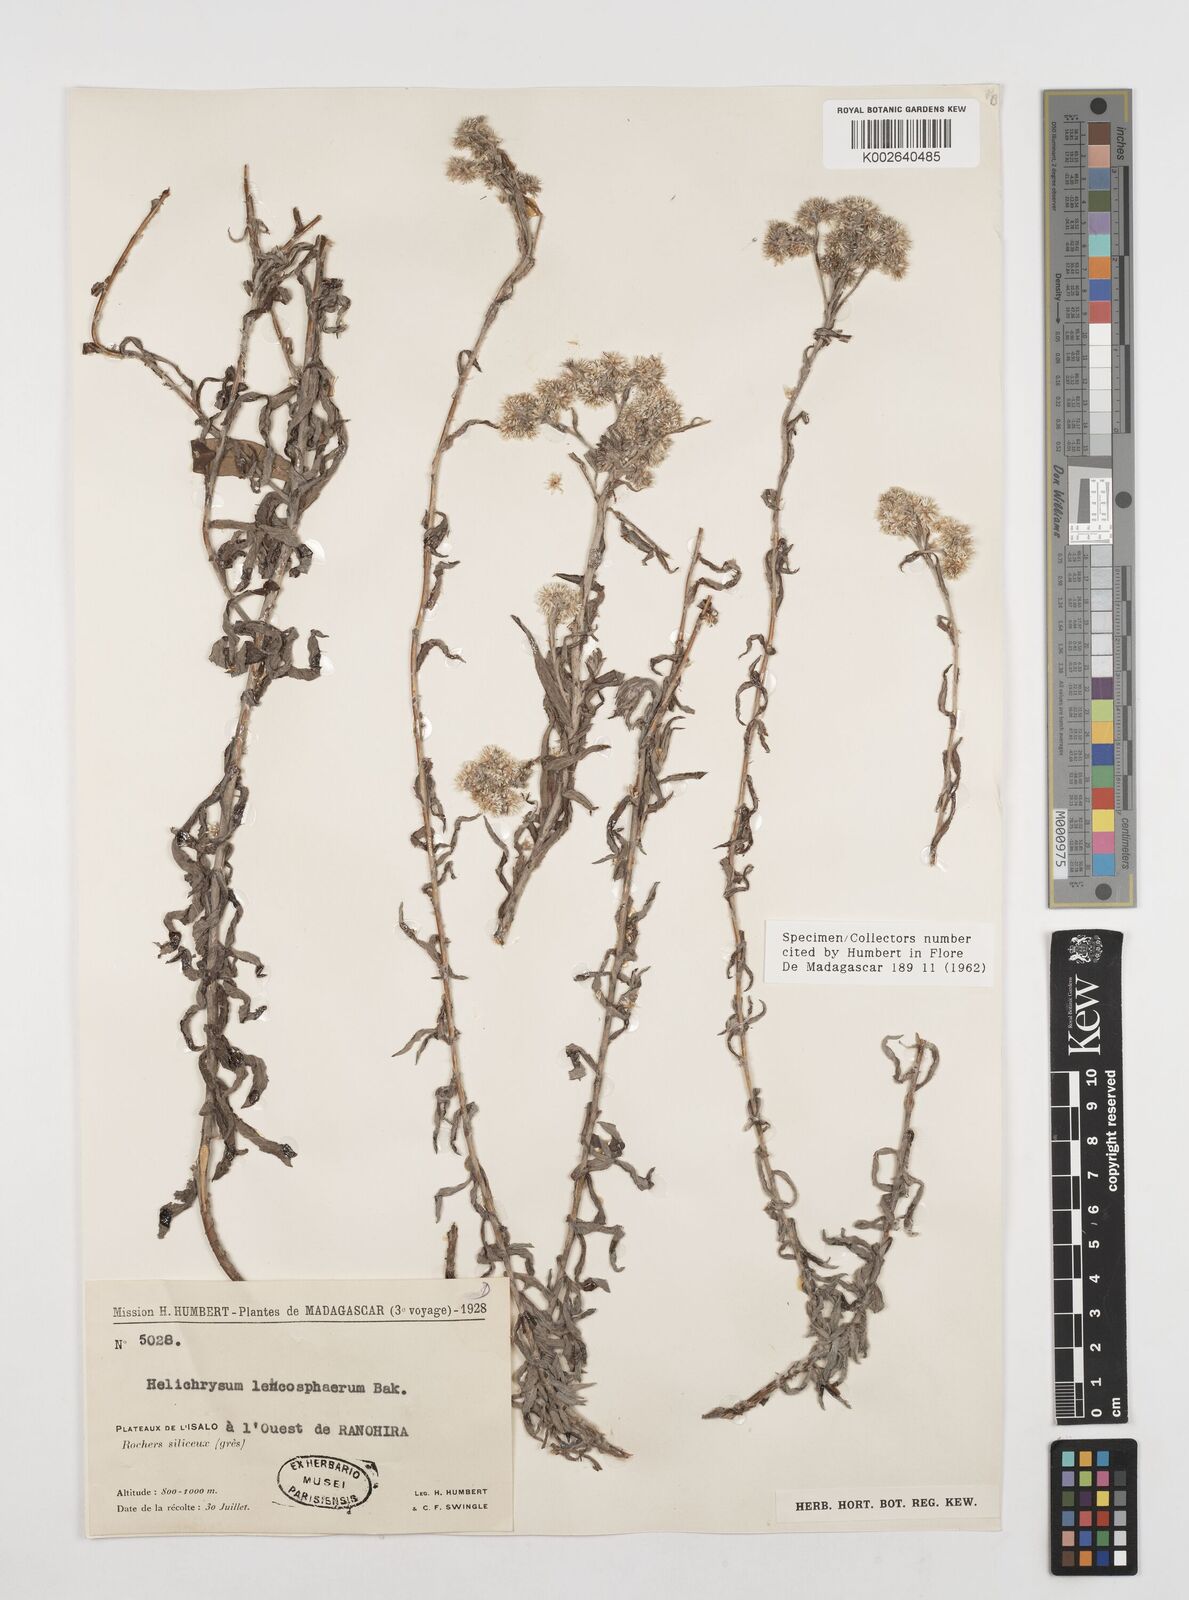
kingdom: Plantae
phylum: Tracheophyta
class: Magnoliopsida
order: Asterales
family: Asteraceae
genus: Helichrysum
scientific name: Helichrysum leucosphaerum
